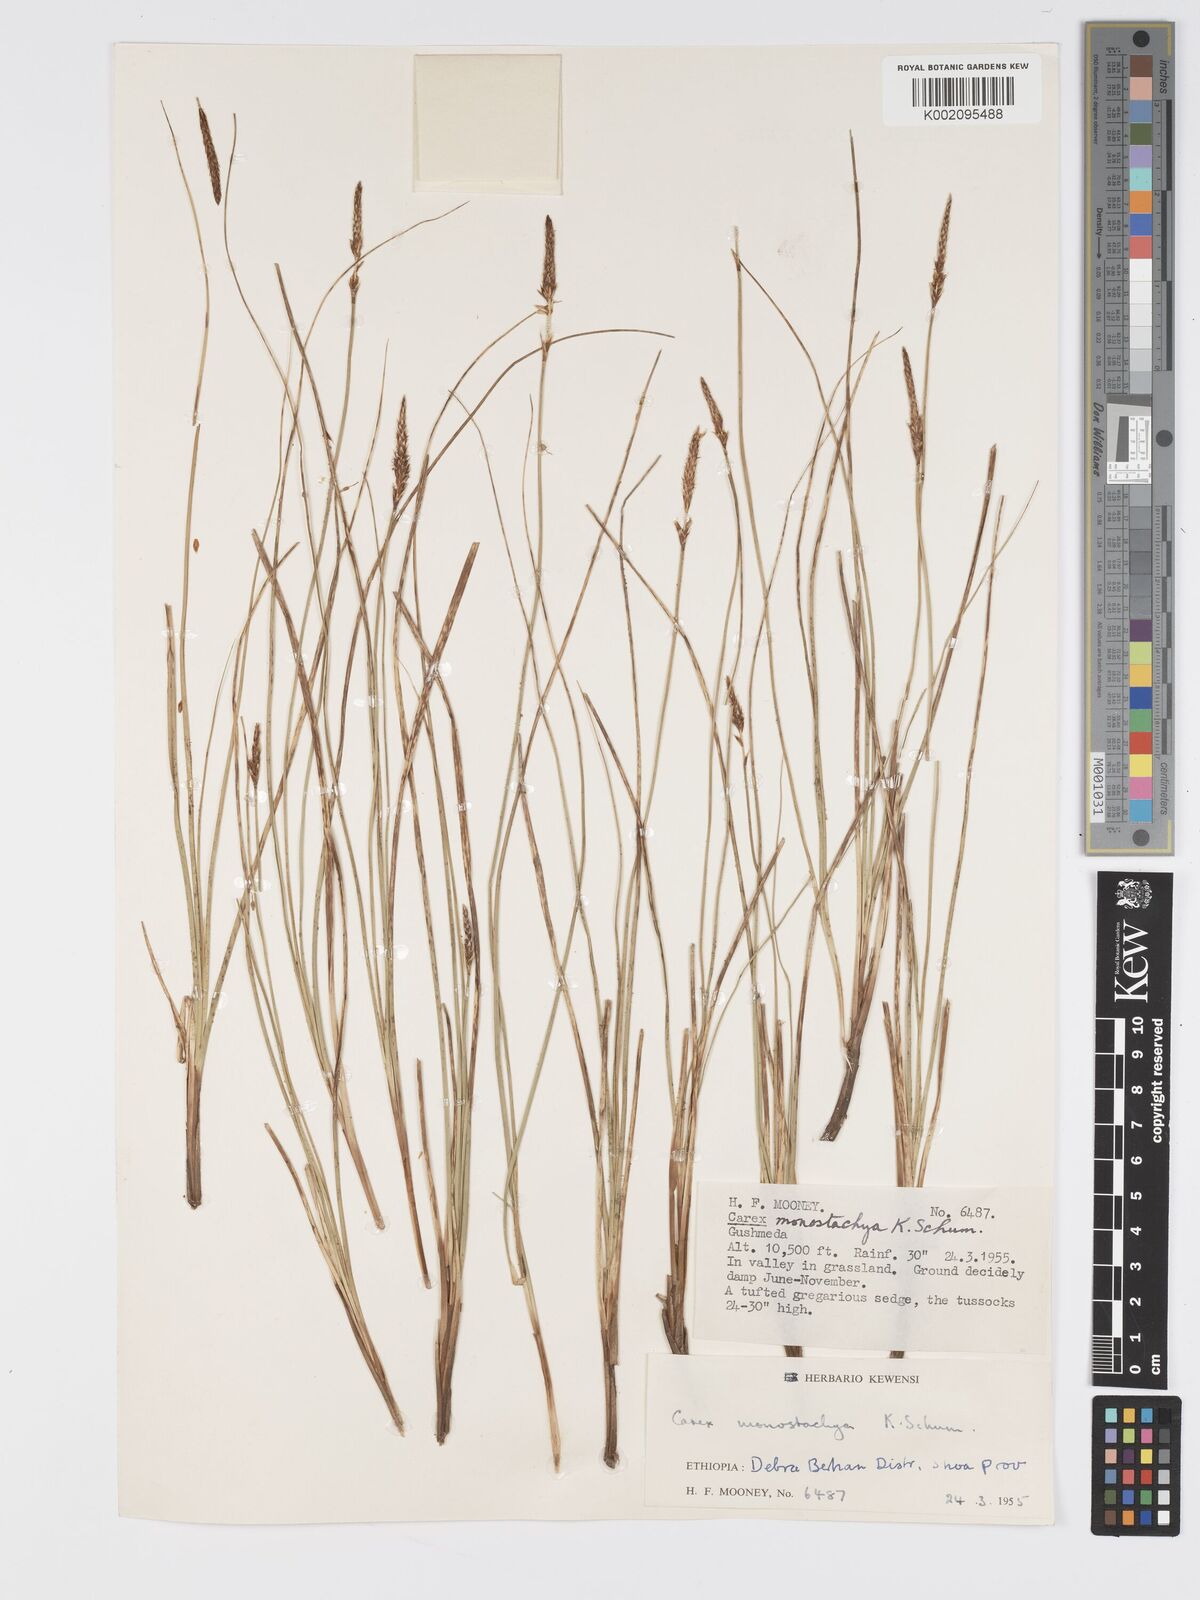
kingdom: Plantae
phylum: Tracheophyta
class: Liliopsida
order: Poales
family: Cyperaceae
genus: Carex
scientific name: Carex monostachya
